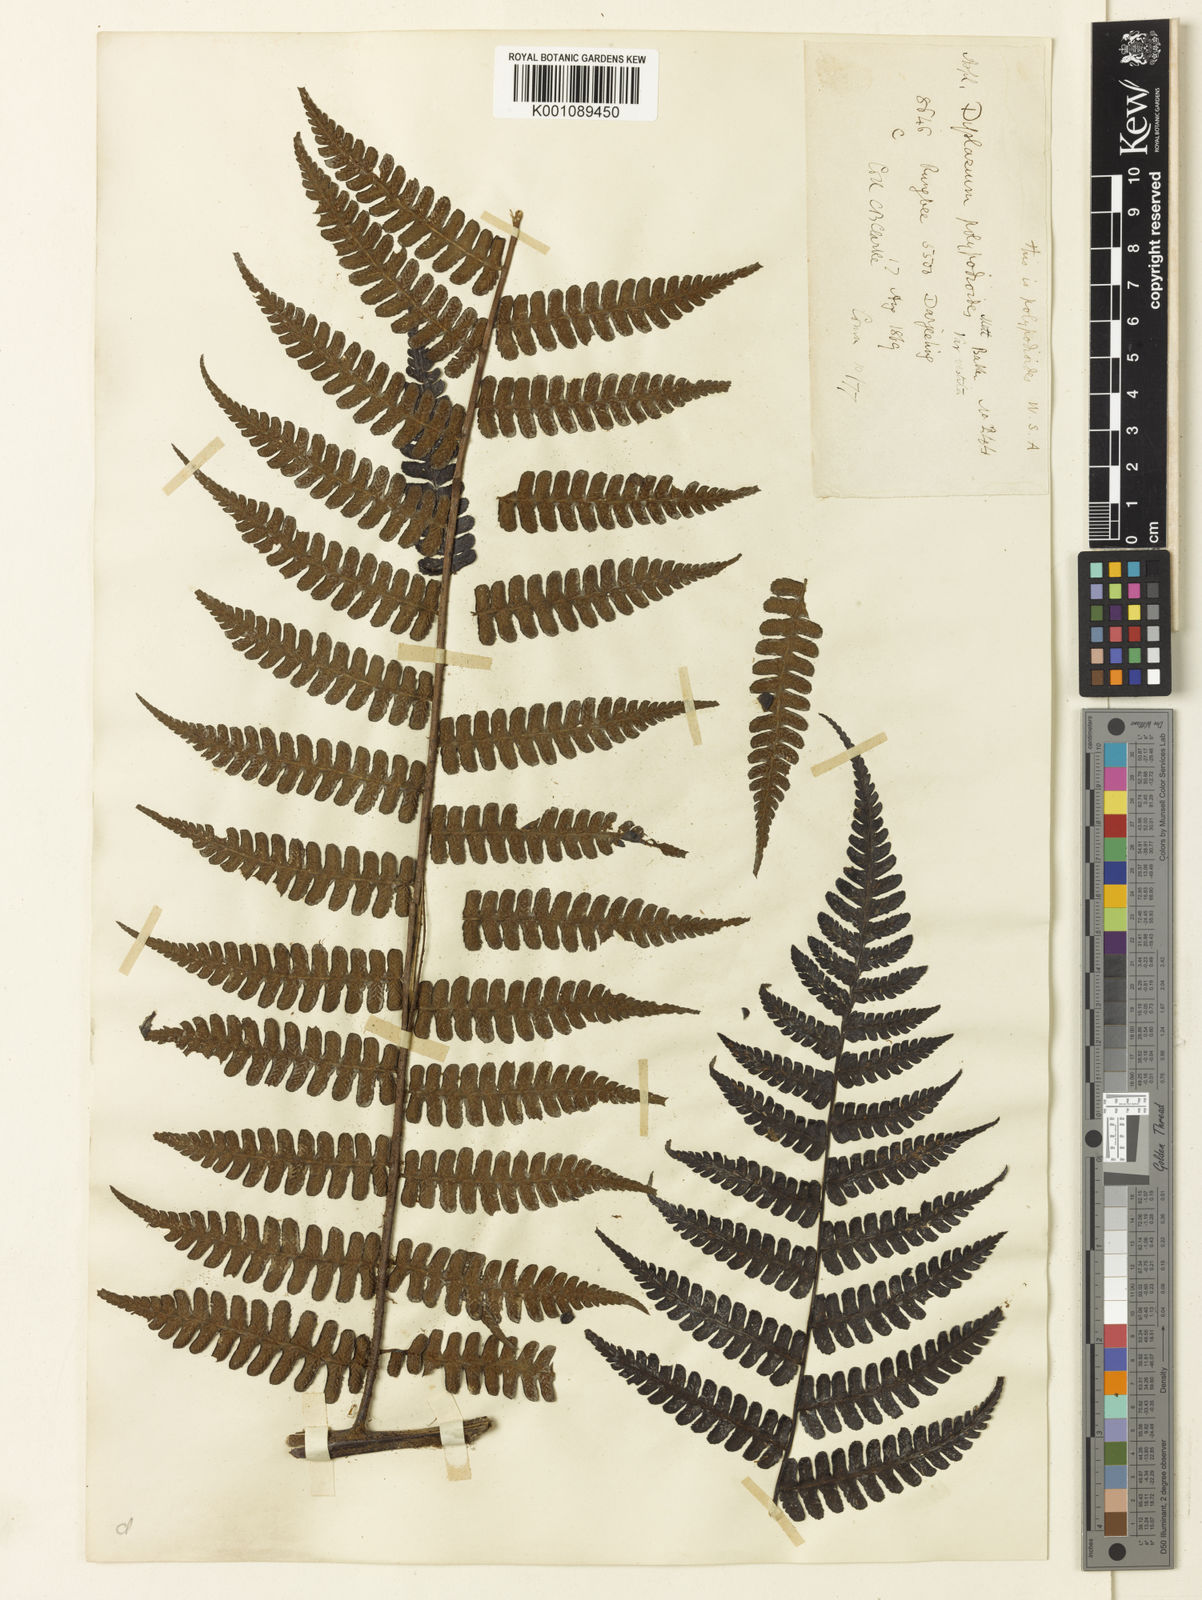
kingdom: Plantae
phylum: Tracheophyta
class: Polypodiopsida
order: Polypodiales
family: Athyriaceae
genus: Diplazium
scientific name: Diplazium himalayense
